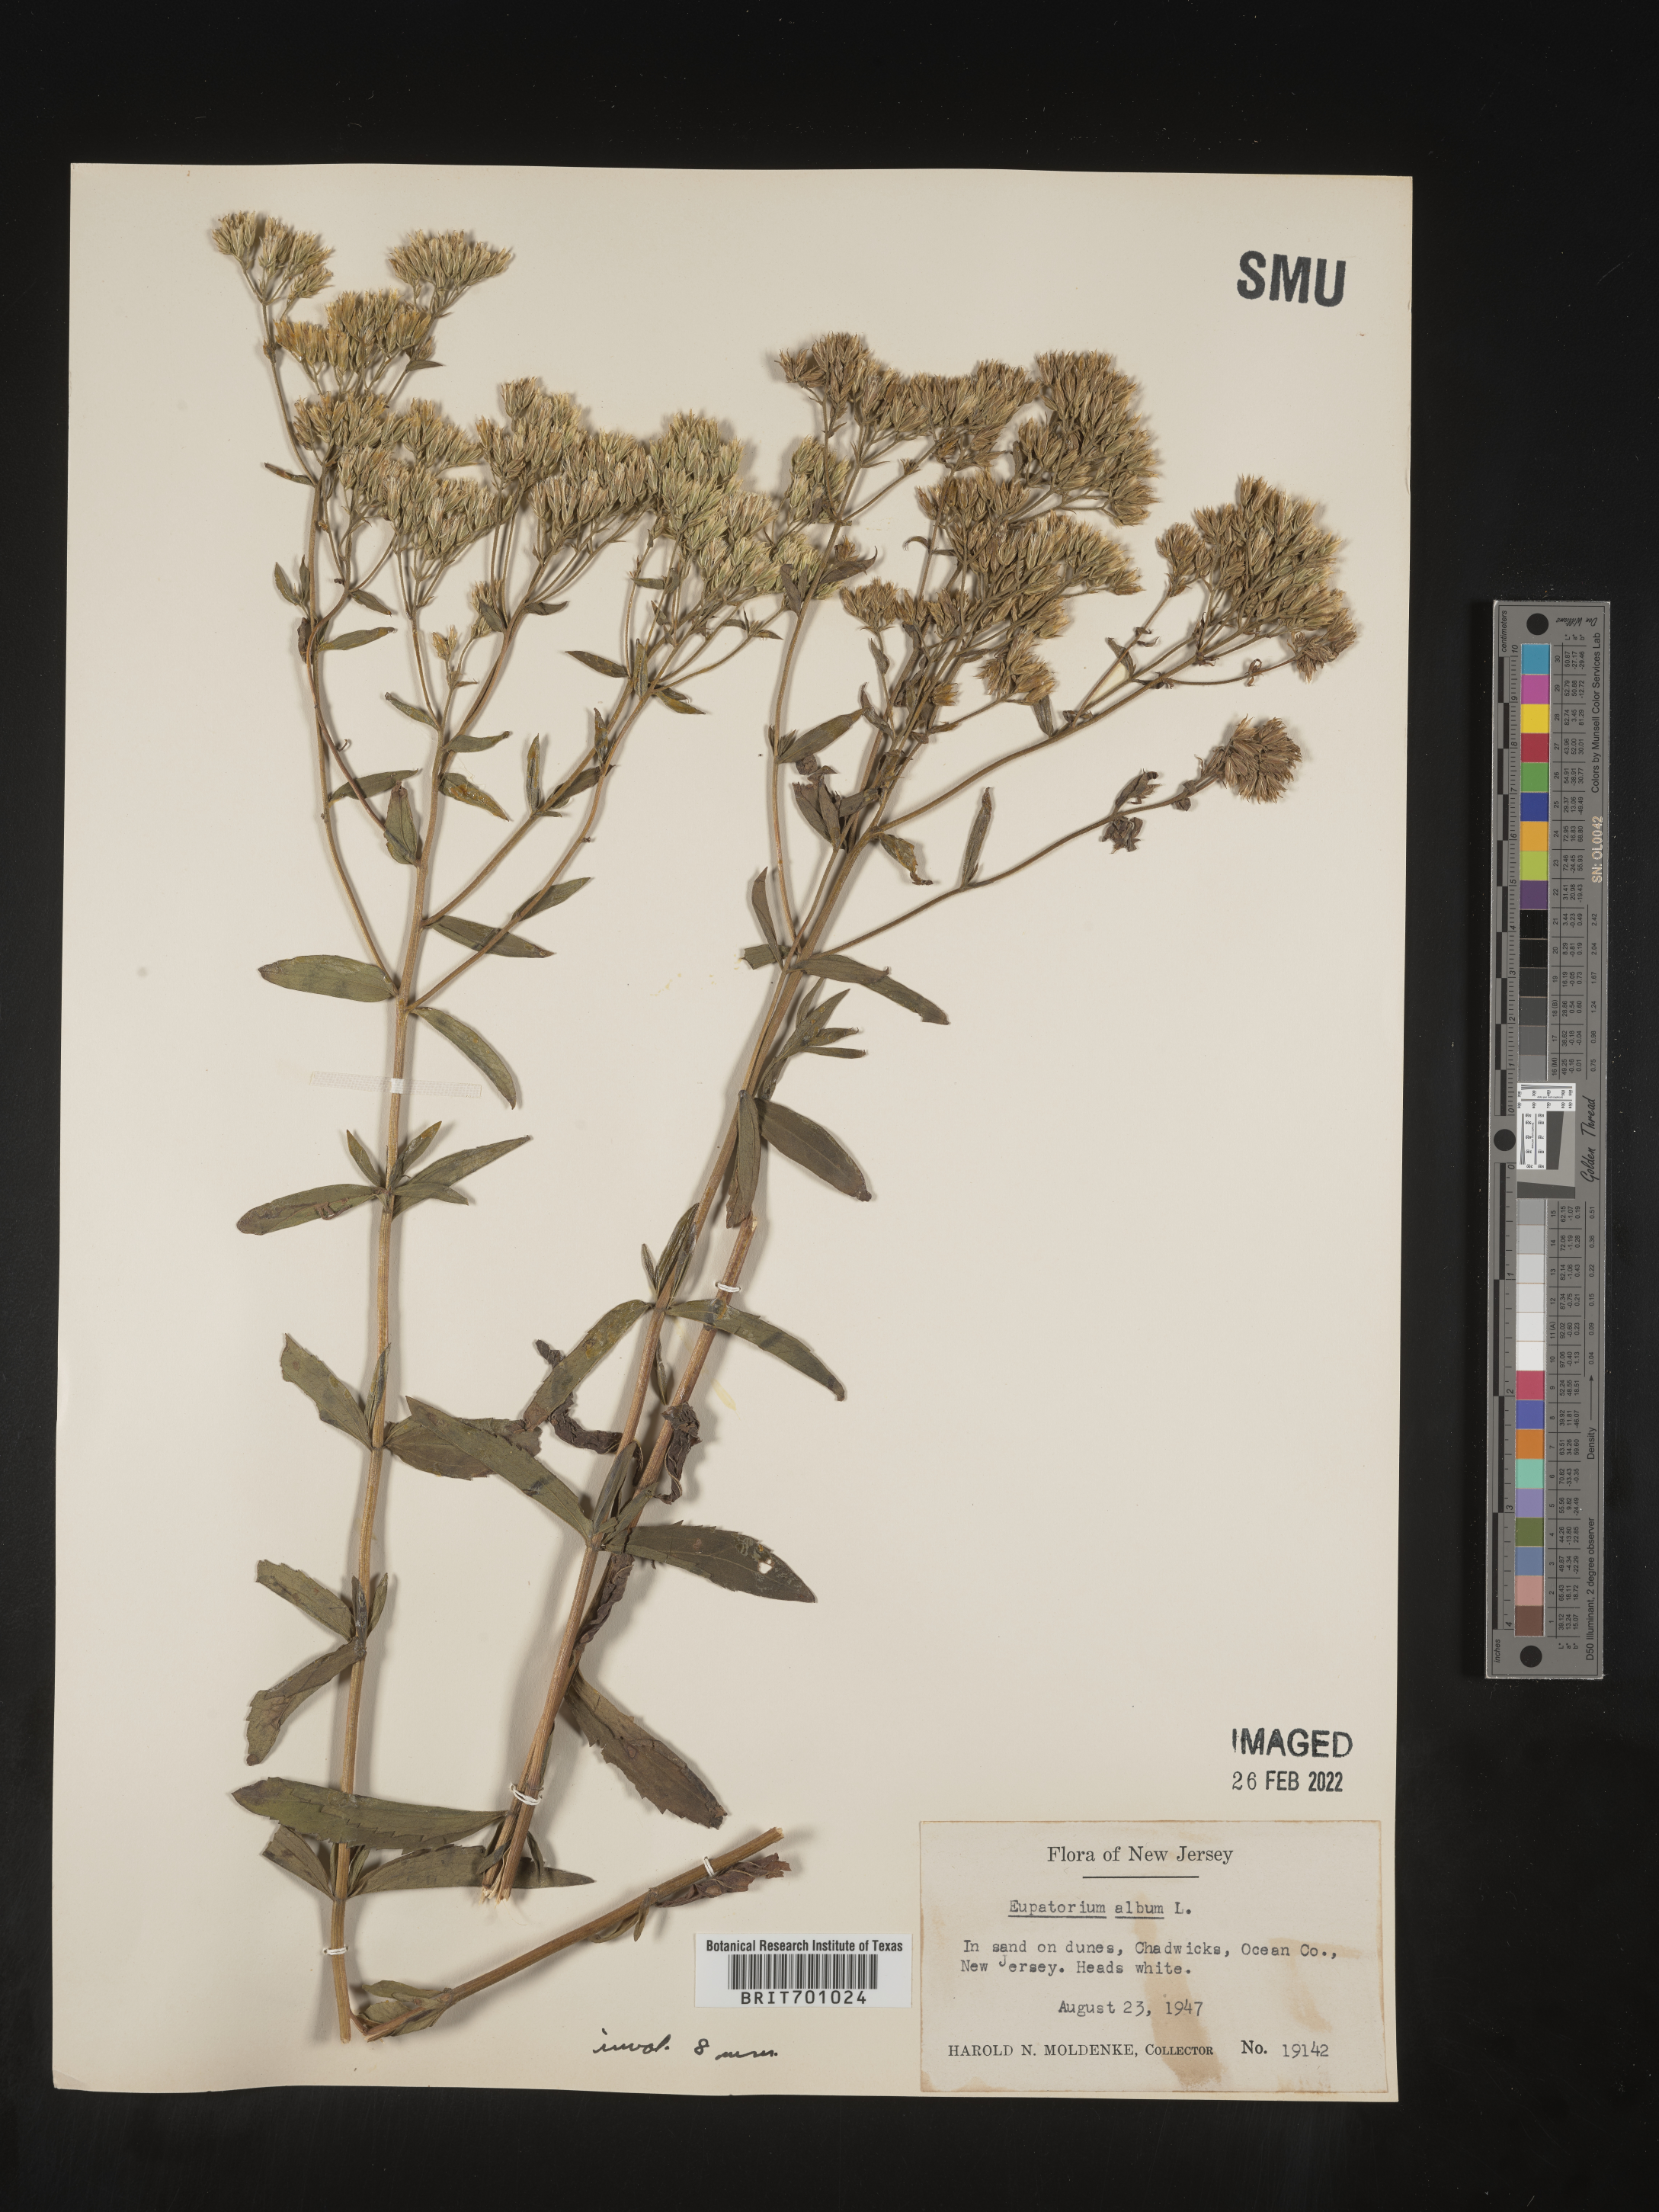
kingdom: Plantae
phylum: Tracheophyta
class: Magnoliopsida
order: Asterales
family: Asteraceae
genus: Eupatorium
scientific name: Eupatorium album
